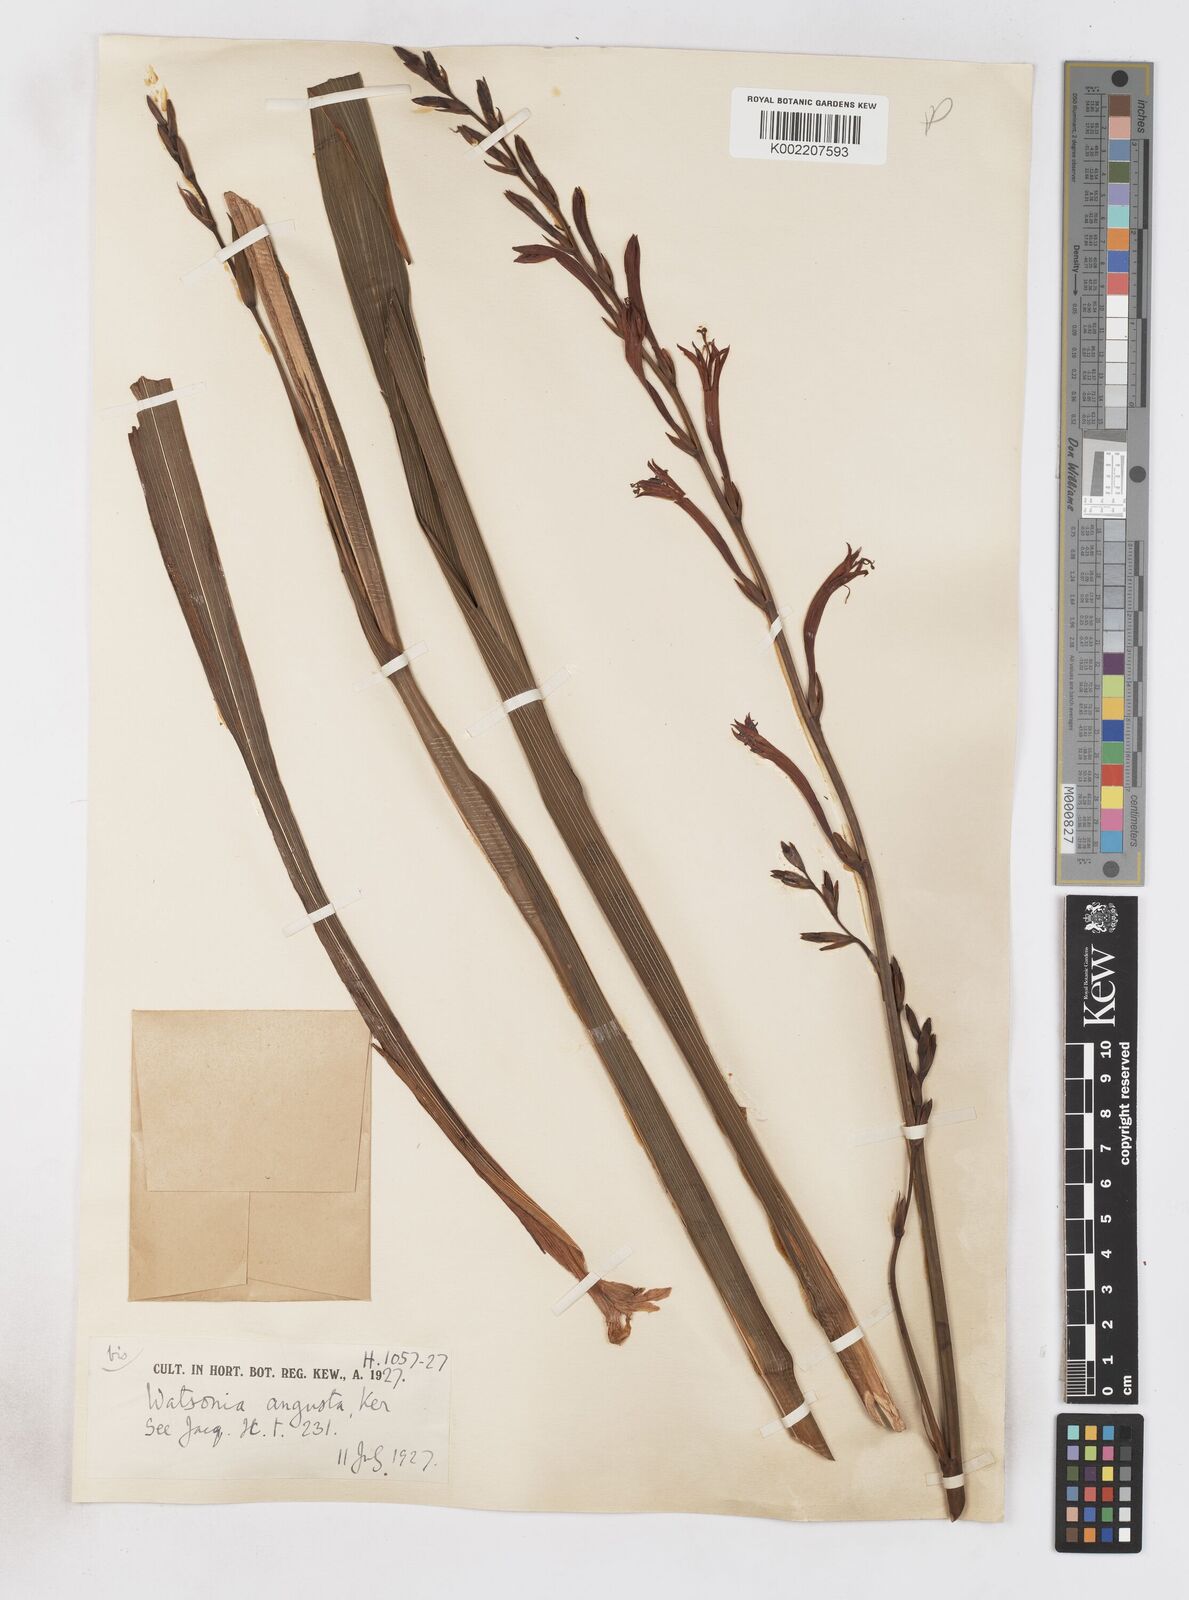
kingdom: Plantae
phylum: Tracheophyta
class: Liliopsida
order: Asparagales
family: Iridaceae
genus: Watsonia
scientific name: Watsonia angusta
